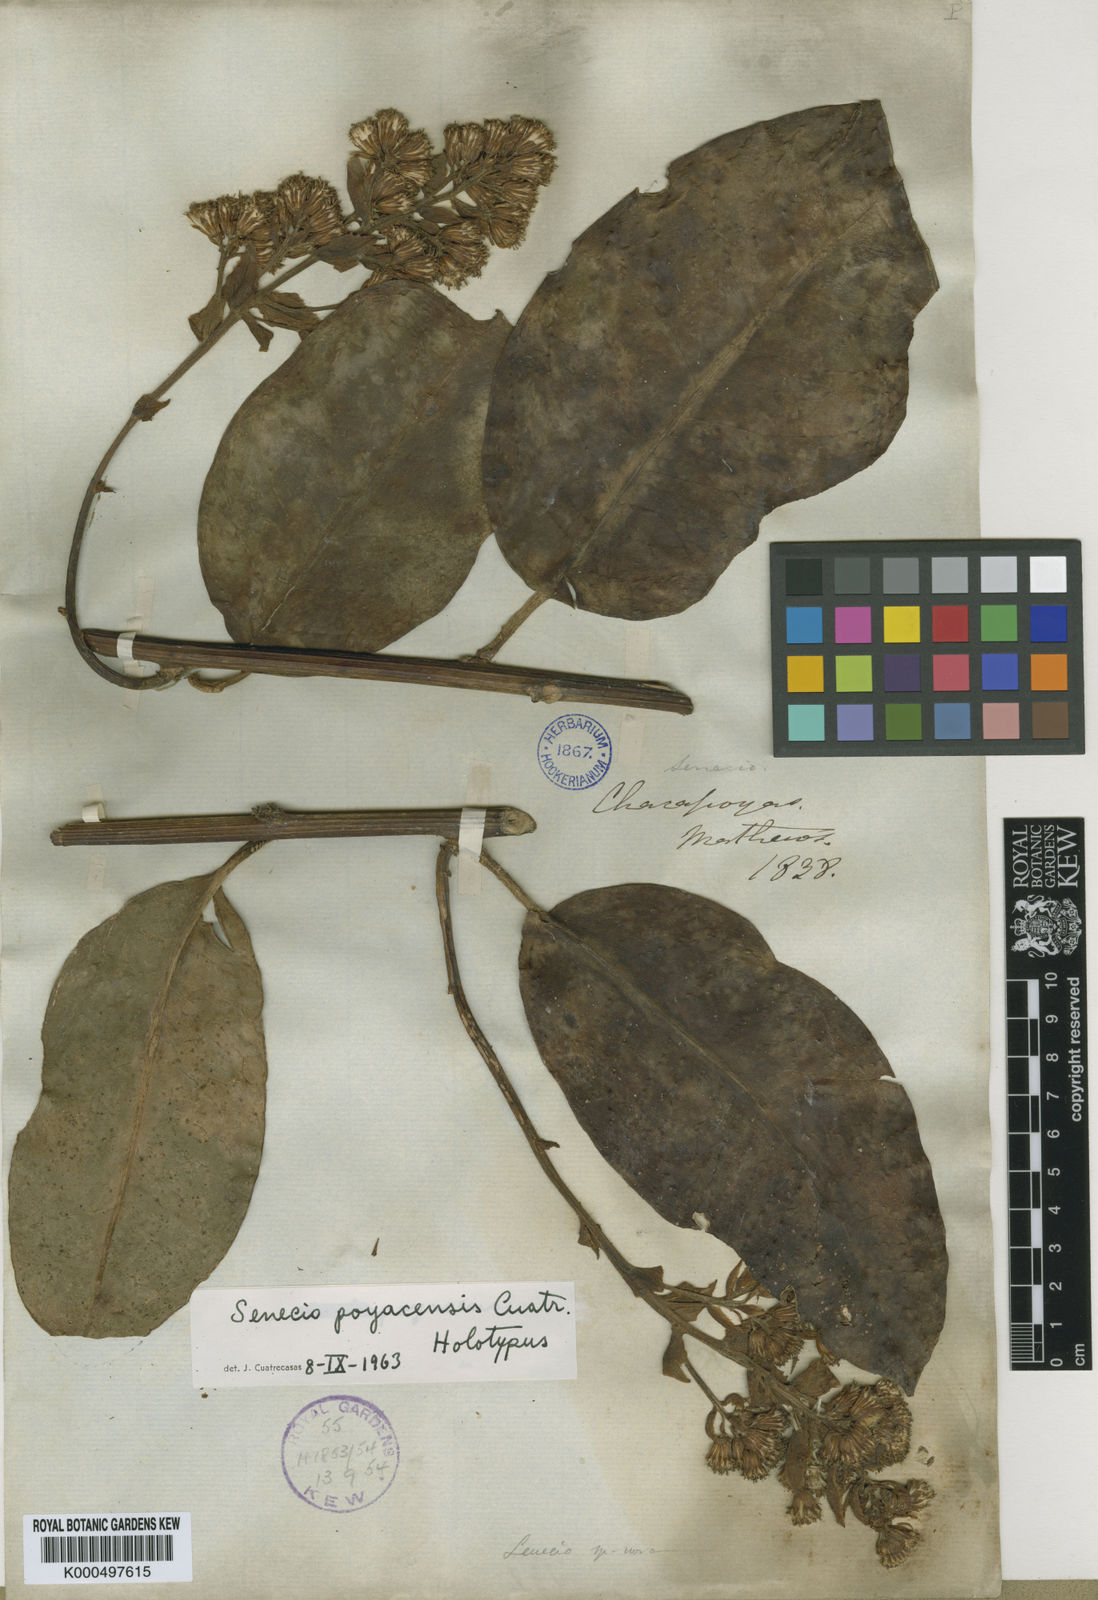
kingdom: Plantae
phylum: Tracheophyta
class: Magnoliopsida
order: Asterales
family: Asteraceae
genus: Pentacalia
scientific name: Pentacalia poyasensis
